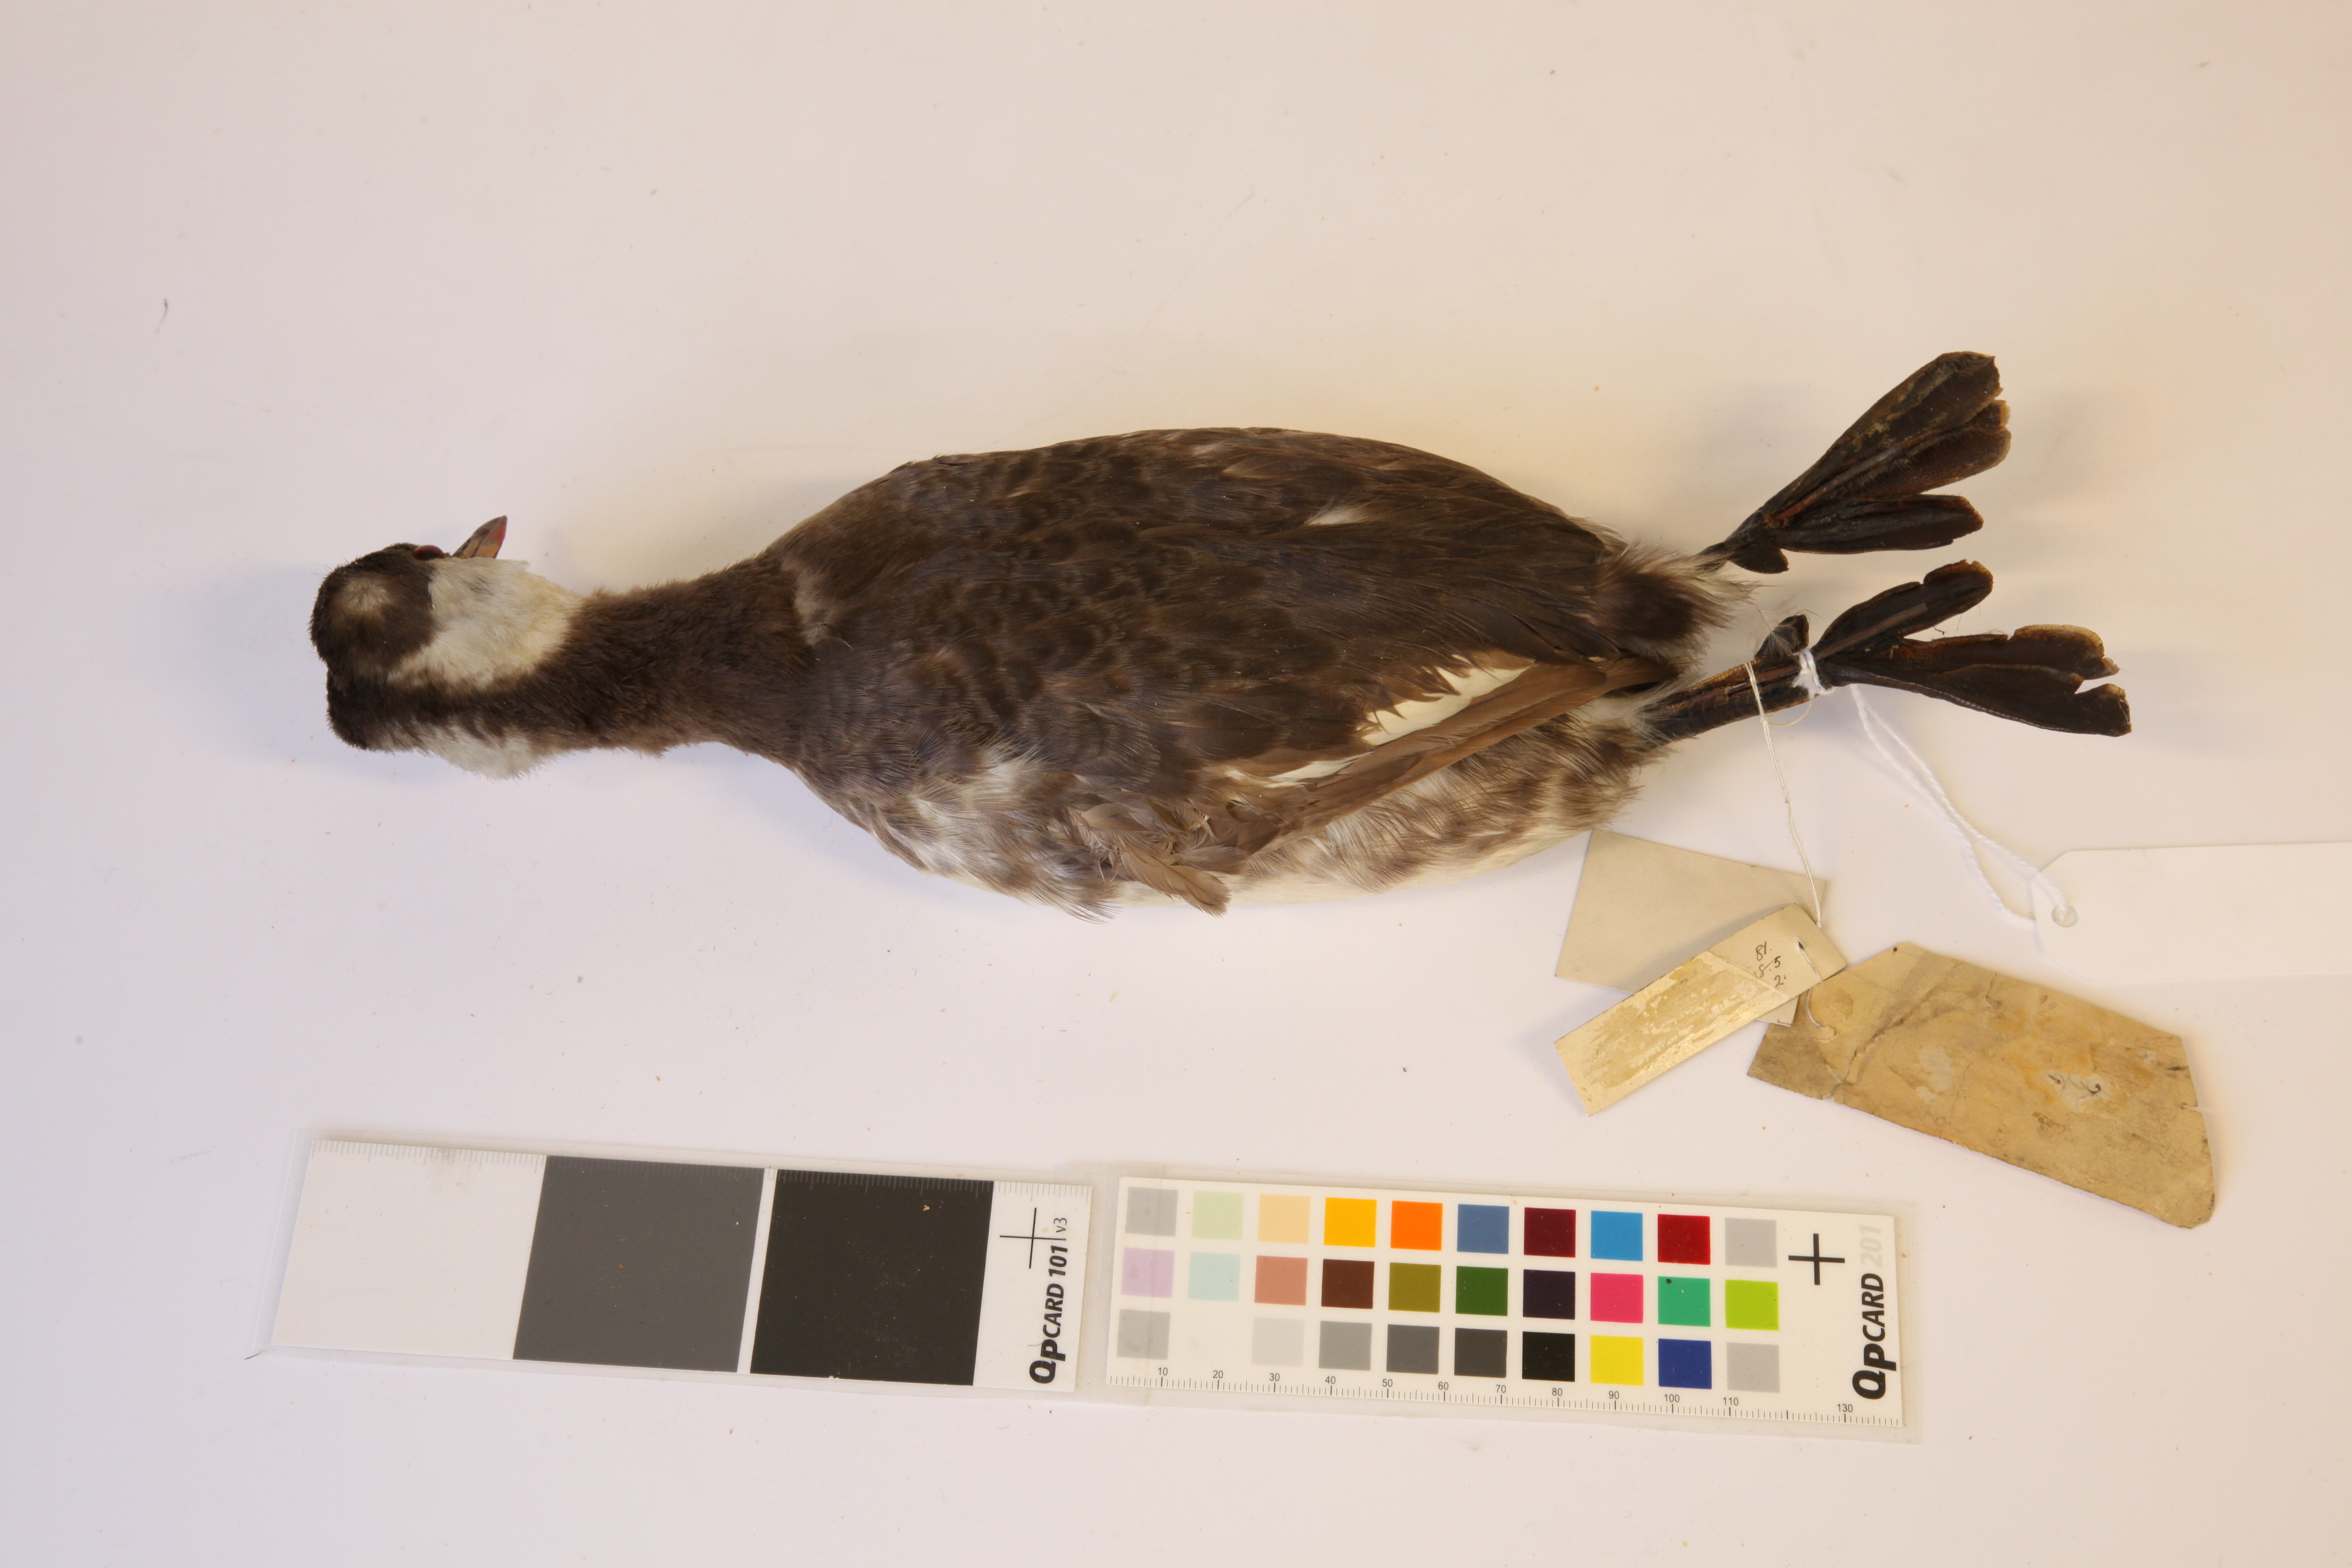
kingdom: Animalia
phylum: Chordata
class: Aves
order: Podicipediformes
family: Podicipedidae
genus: Podiceps
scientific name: Podiceps auritus
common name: Horned grebe
